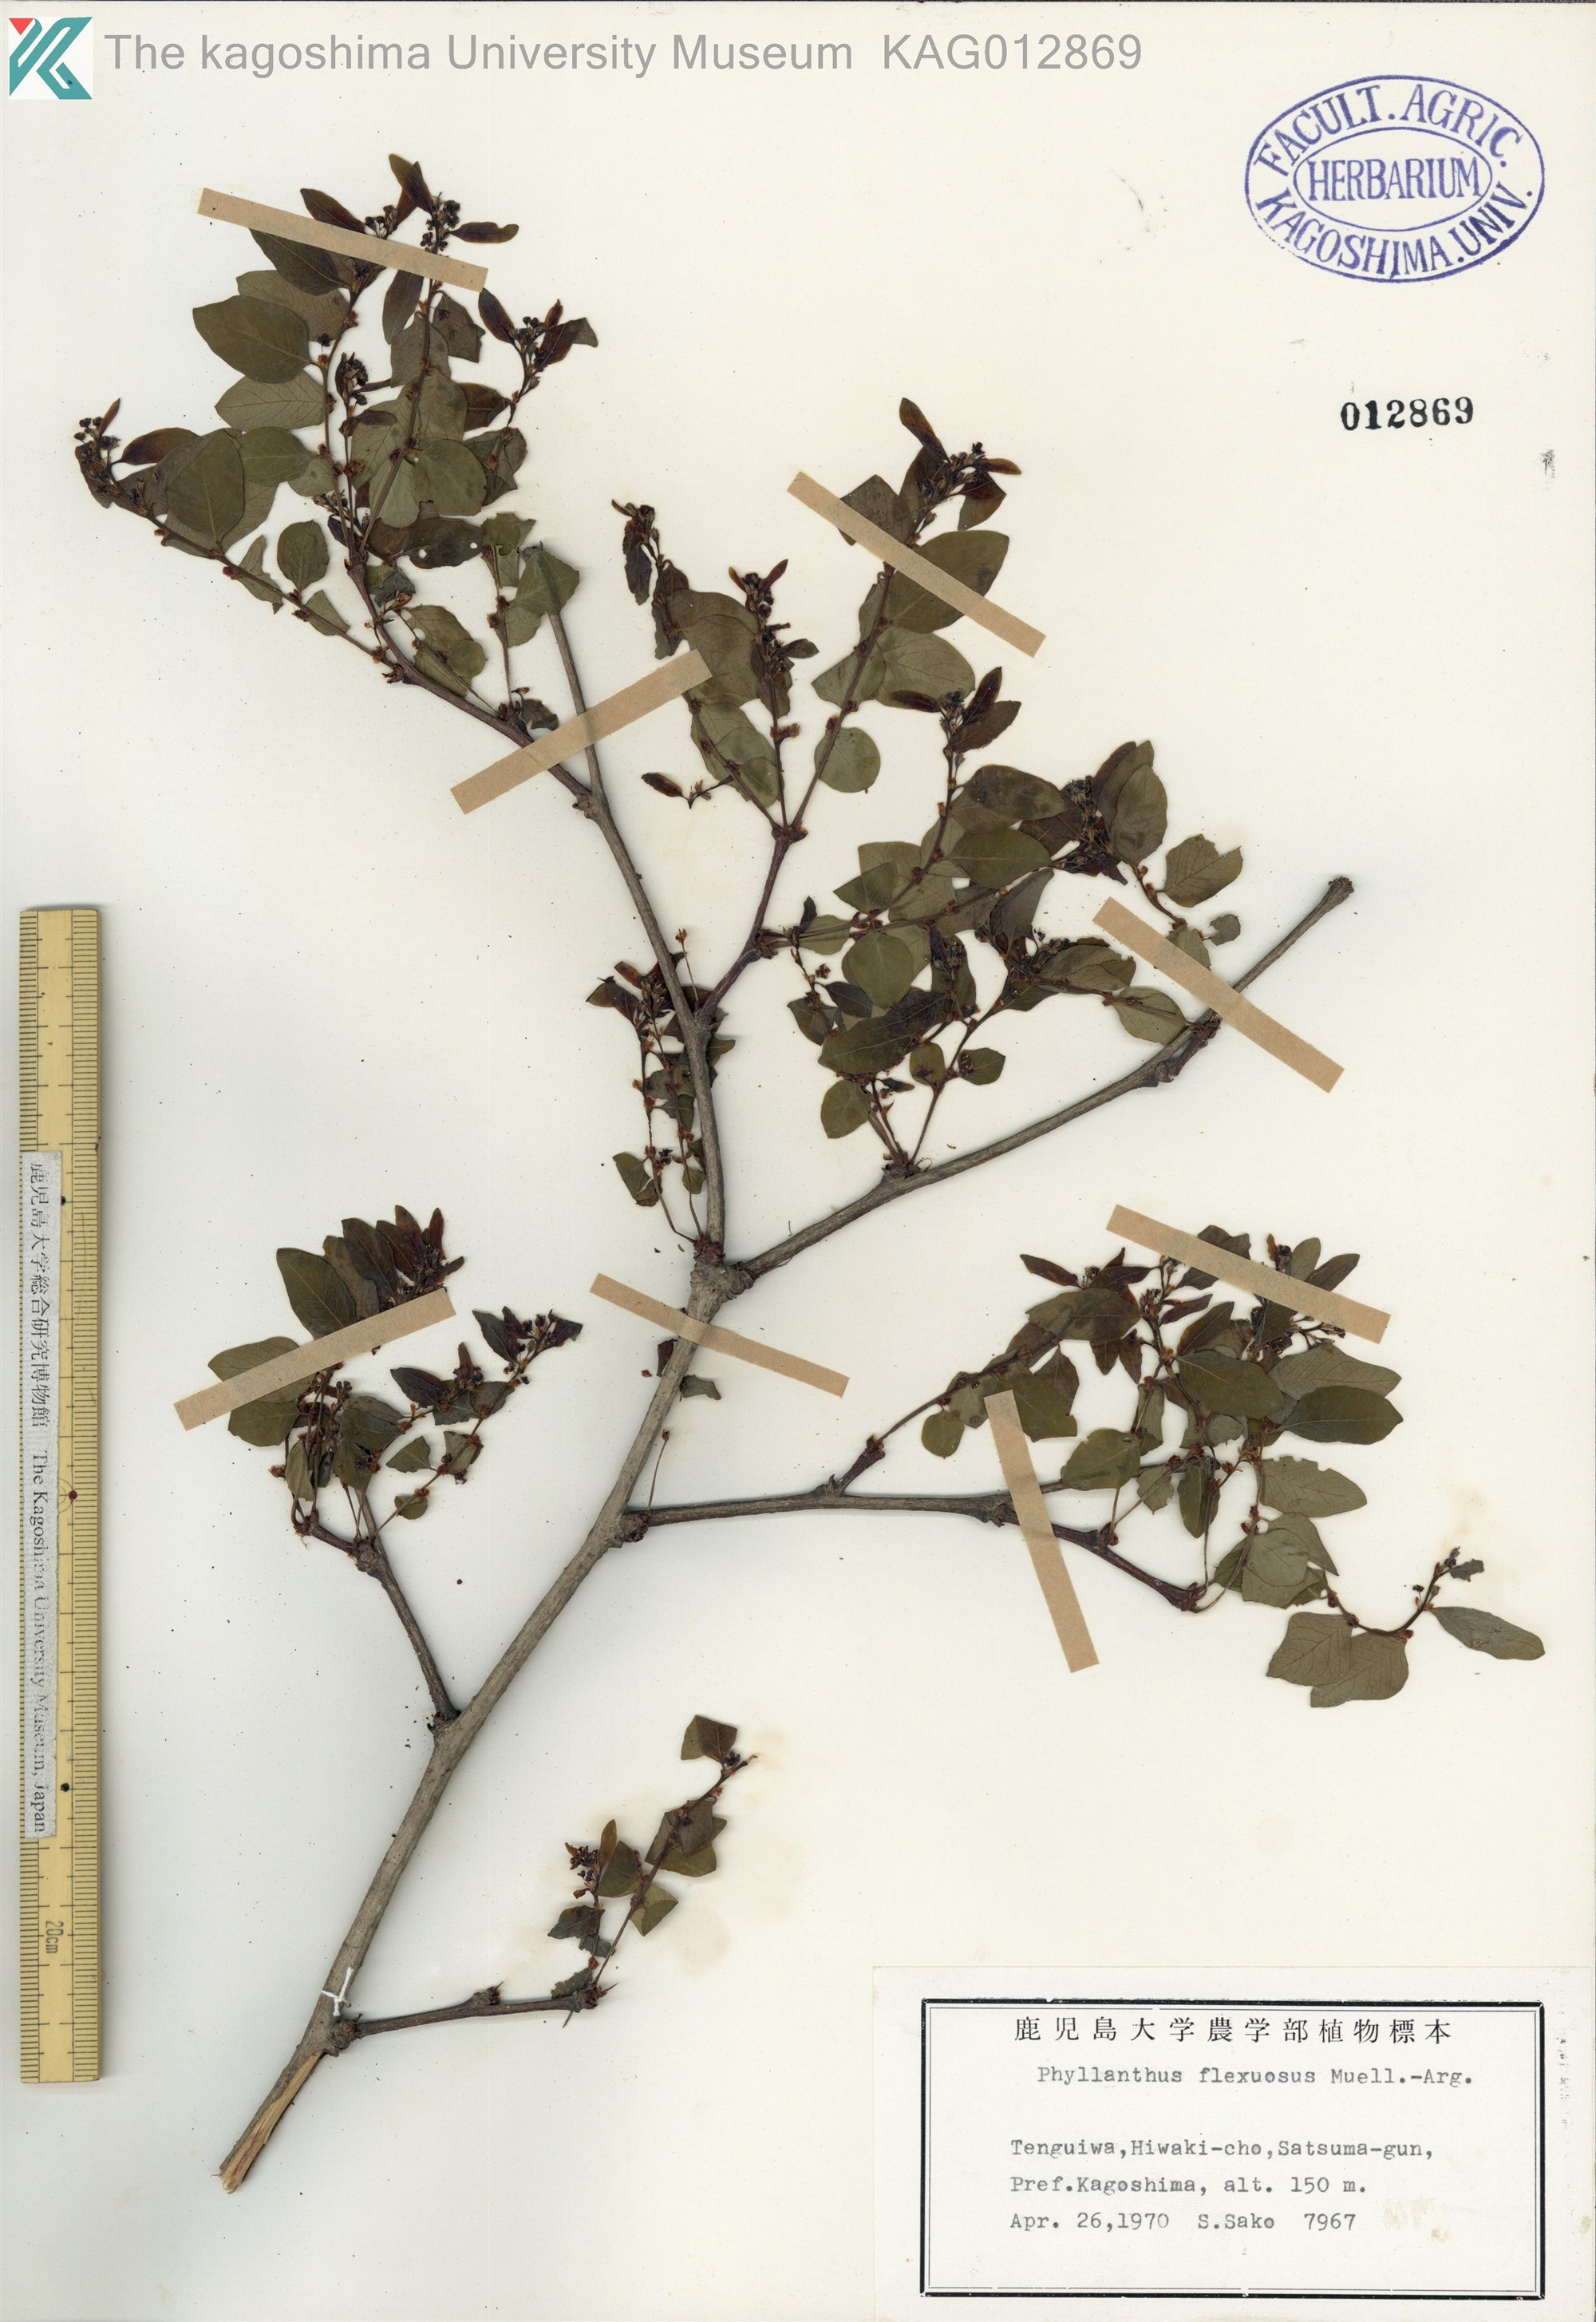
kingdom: Plantae
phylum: Tracheophyta
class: Magnoliopsida
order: Malpighiales
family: Phyllanthaceae
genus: Phyllanthus
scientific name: Phyllanthus flexuosus
